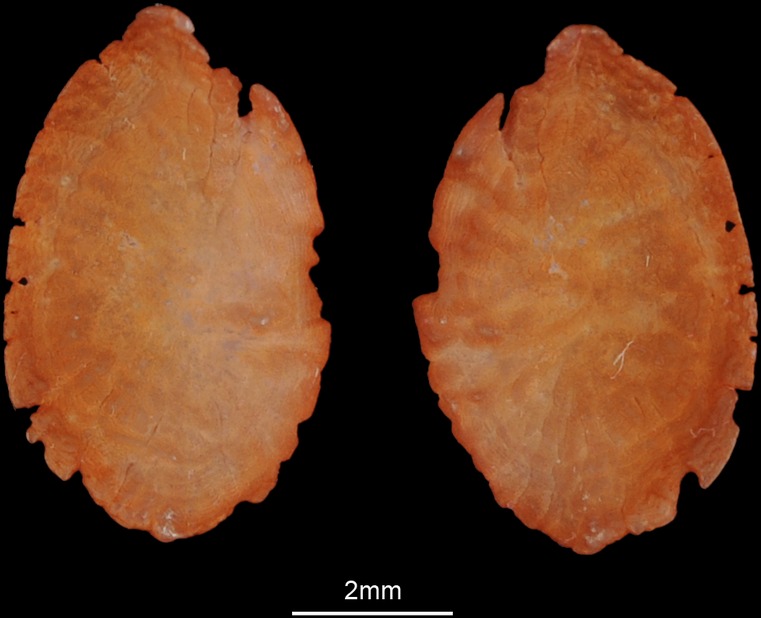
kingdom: Animalia
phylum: Chordata
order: Perciformes
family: Gerreidae
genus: Gerres
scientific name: Gerres longirostris
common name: Strongspine silver-biddy
